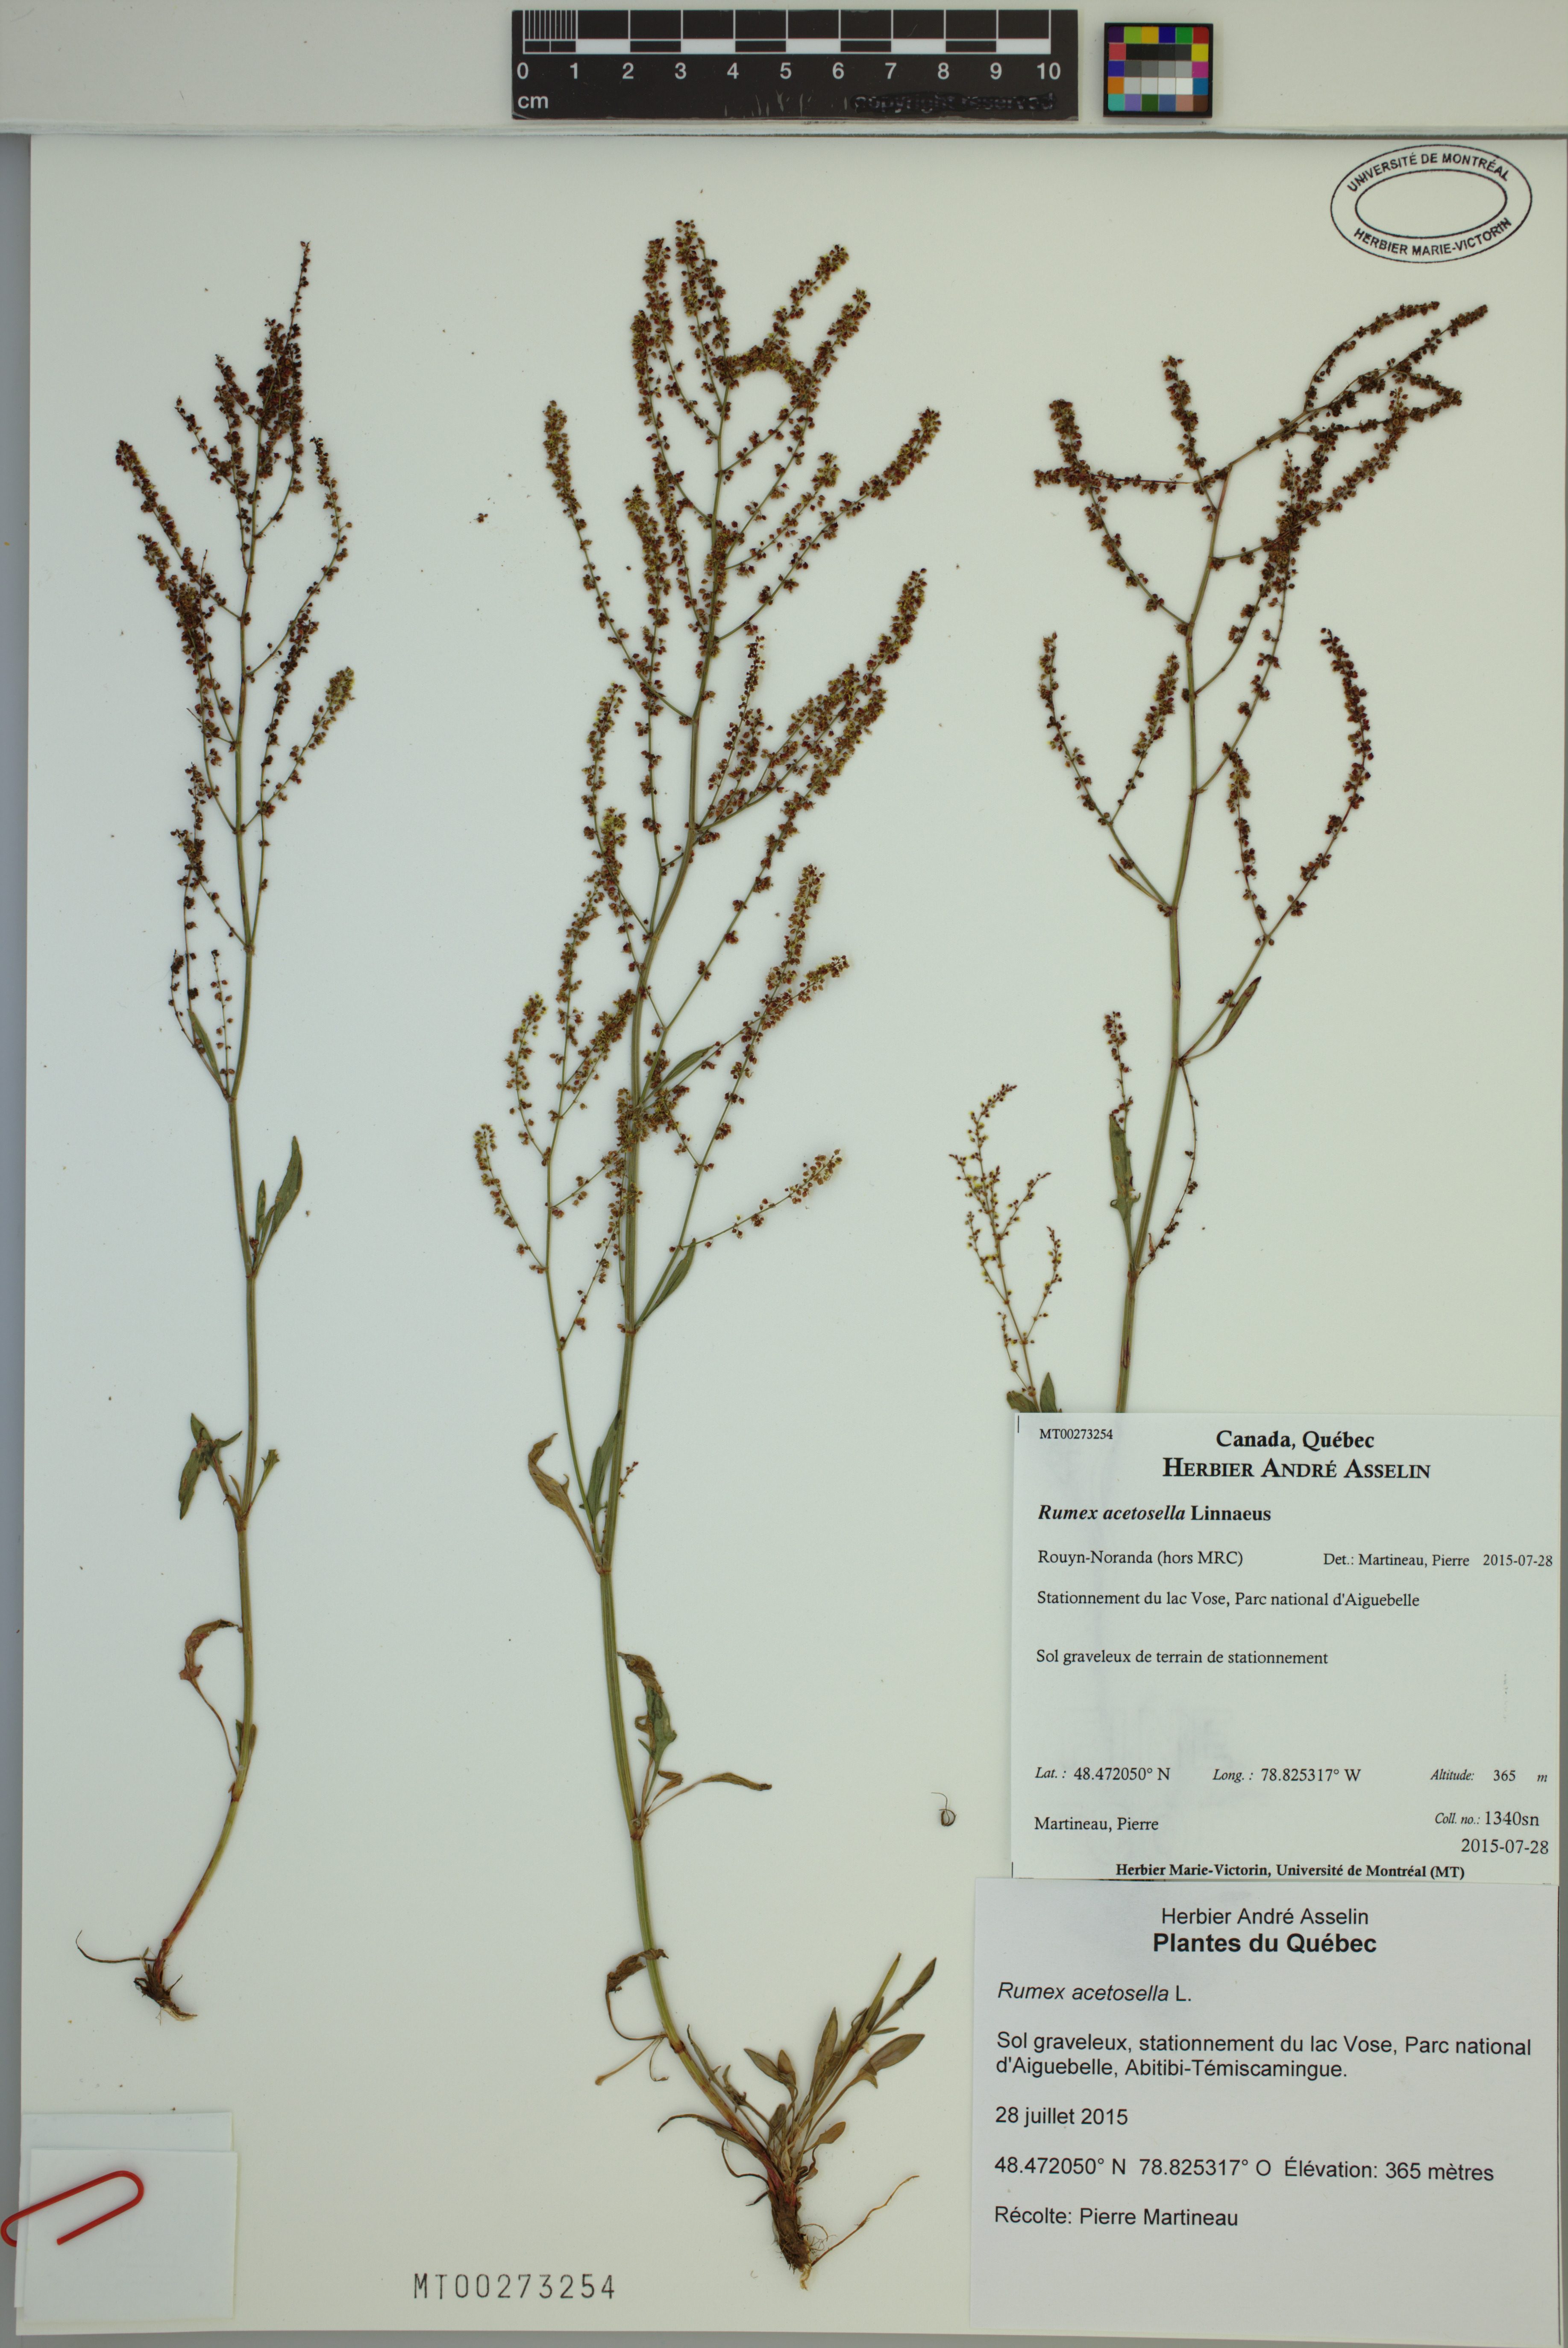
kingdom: Plantae
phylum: Tracheophyta
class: Magnoliopsida
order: Caryophyllales
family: Polygonaceae
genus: Rumex
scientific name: Rumex acetosella
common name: Common sheep sorrel
